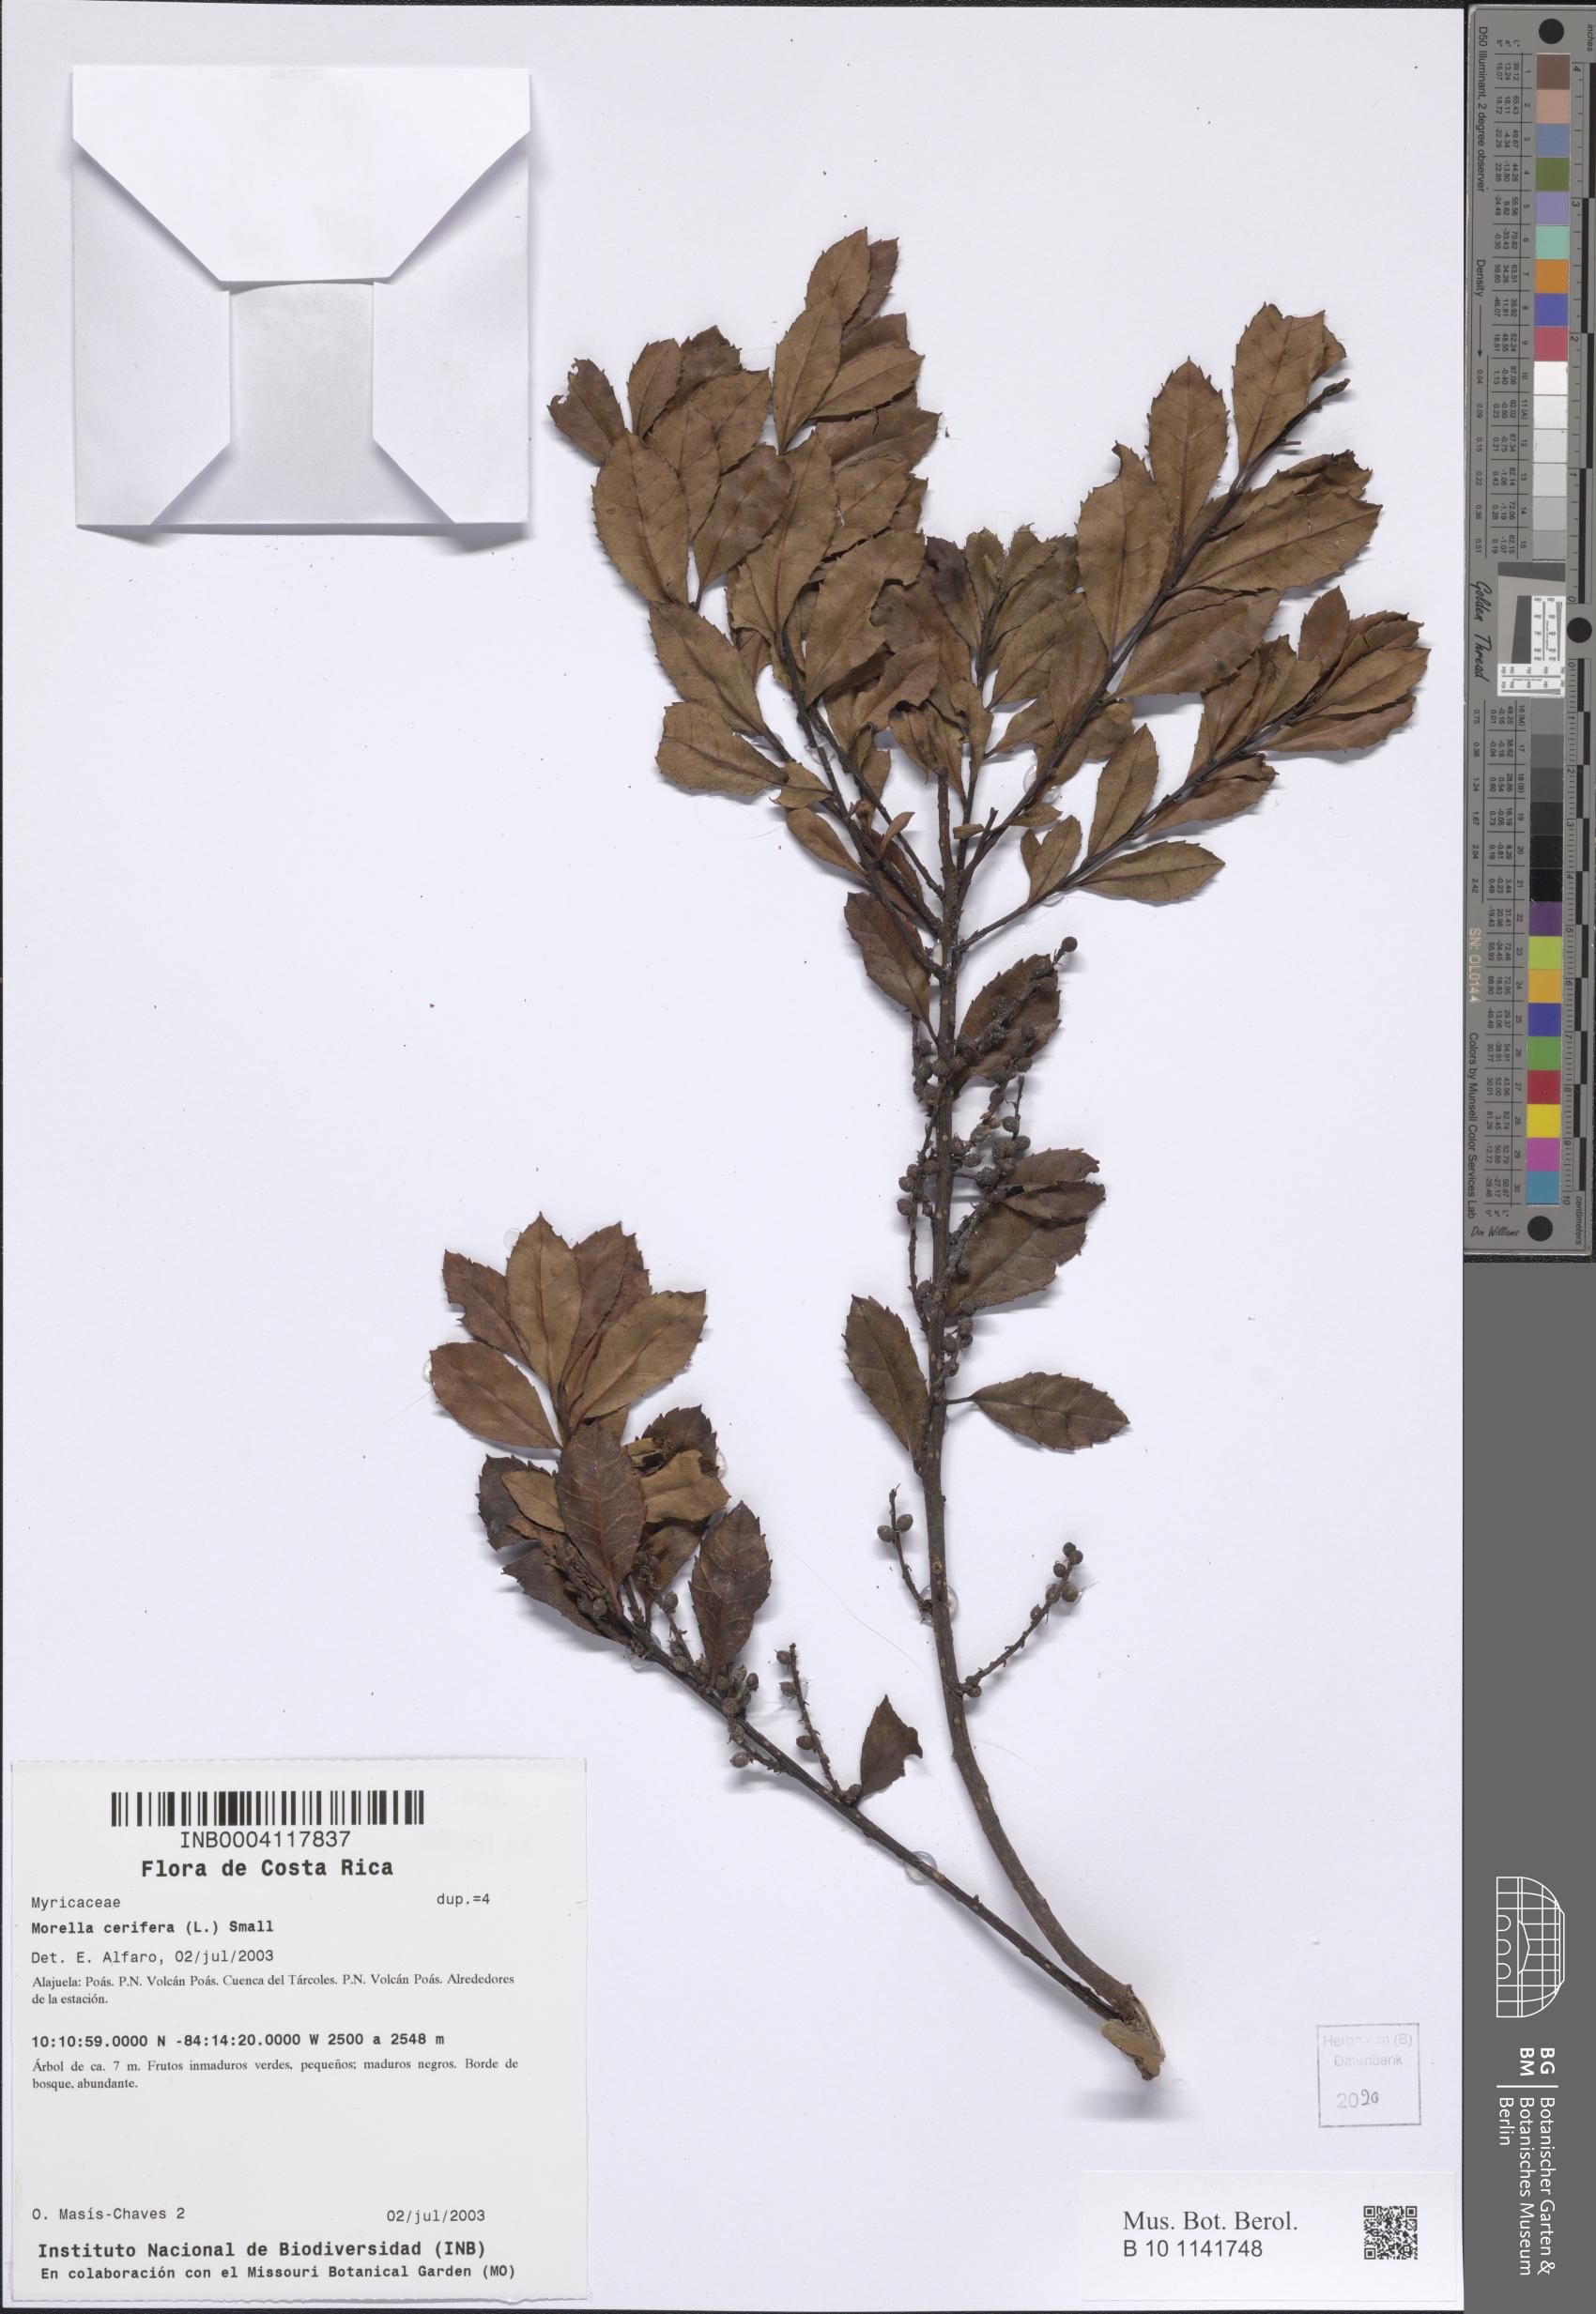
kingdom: Plantae
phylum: Tracheophyta
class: Magnoliopsida
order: Fagales
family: Myricaceae
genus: Morella
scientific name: Morella cerifera
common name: Wax myrtle
